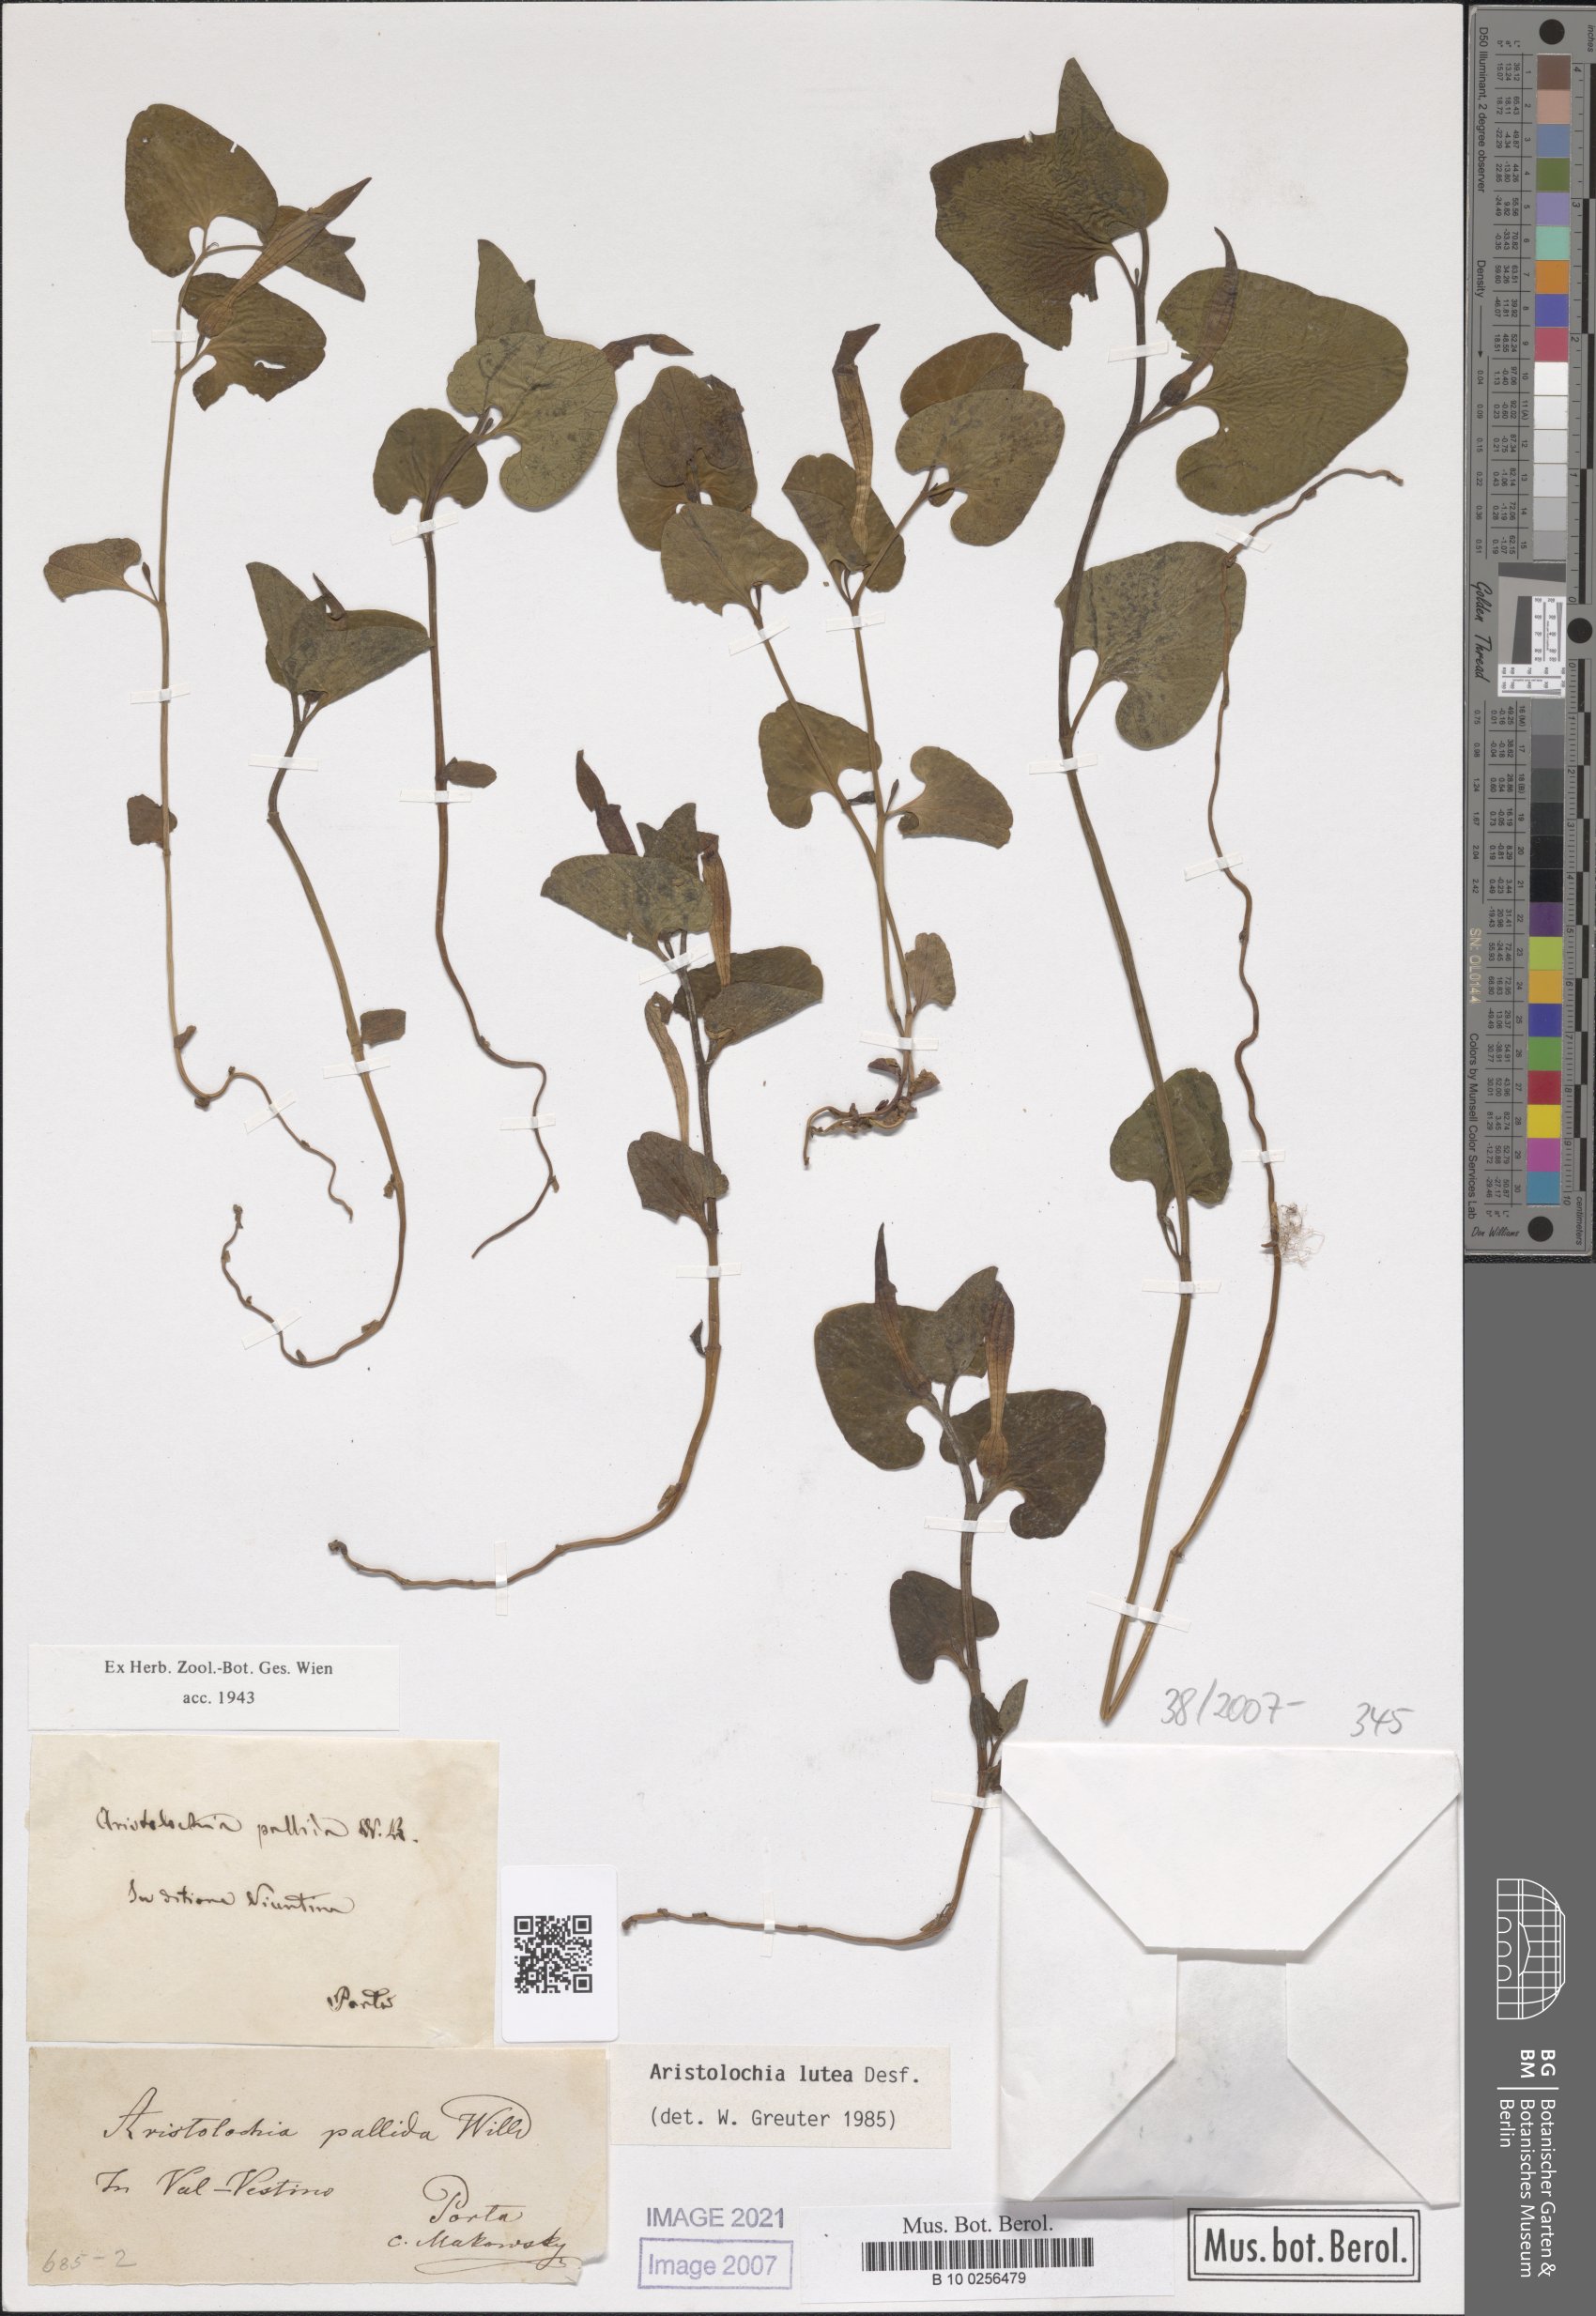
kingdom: Plantae
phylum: Tracheophyta
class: Magnoliopsida
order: Piperales
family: Aristolochiaceae
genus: Aristolochia
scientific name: Aristolochia lutea
